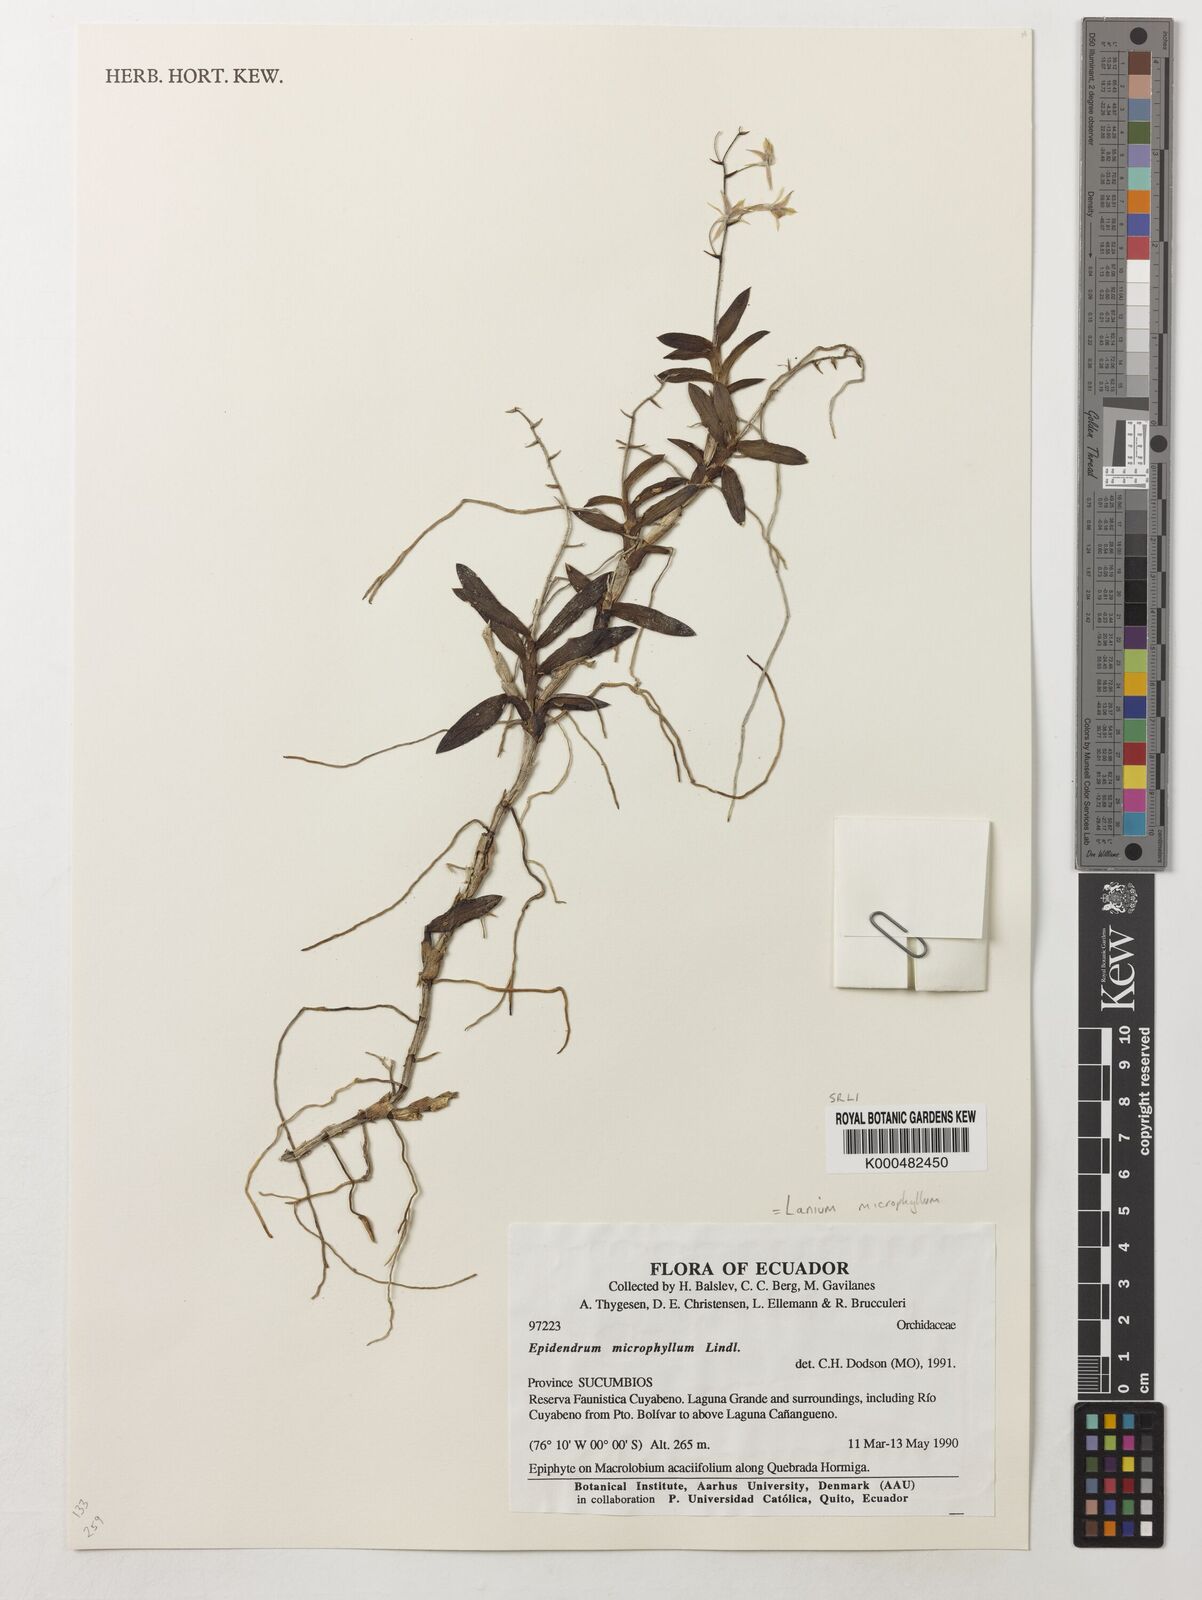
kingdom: Plantae
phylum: Tracheophyta
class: Liliopsida
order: Asparagales
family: Orchidaceae
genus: Epidendrum
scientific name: Epidendrum microphyllum
